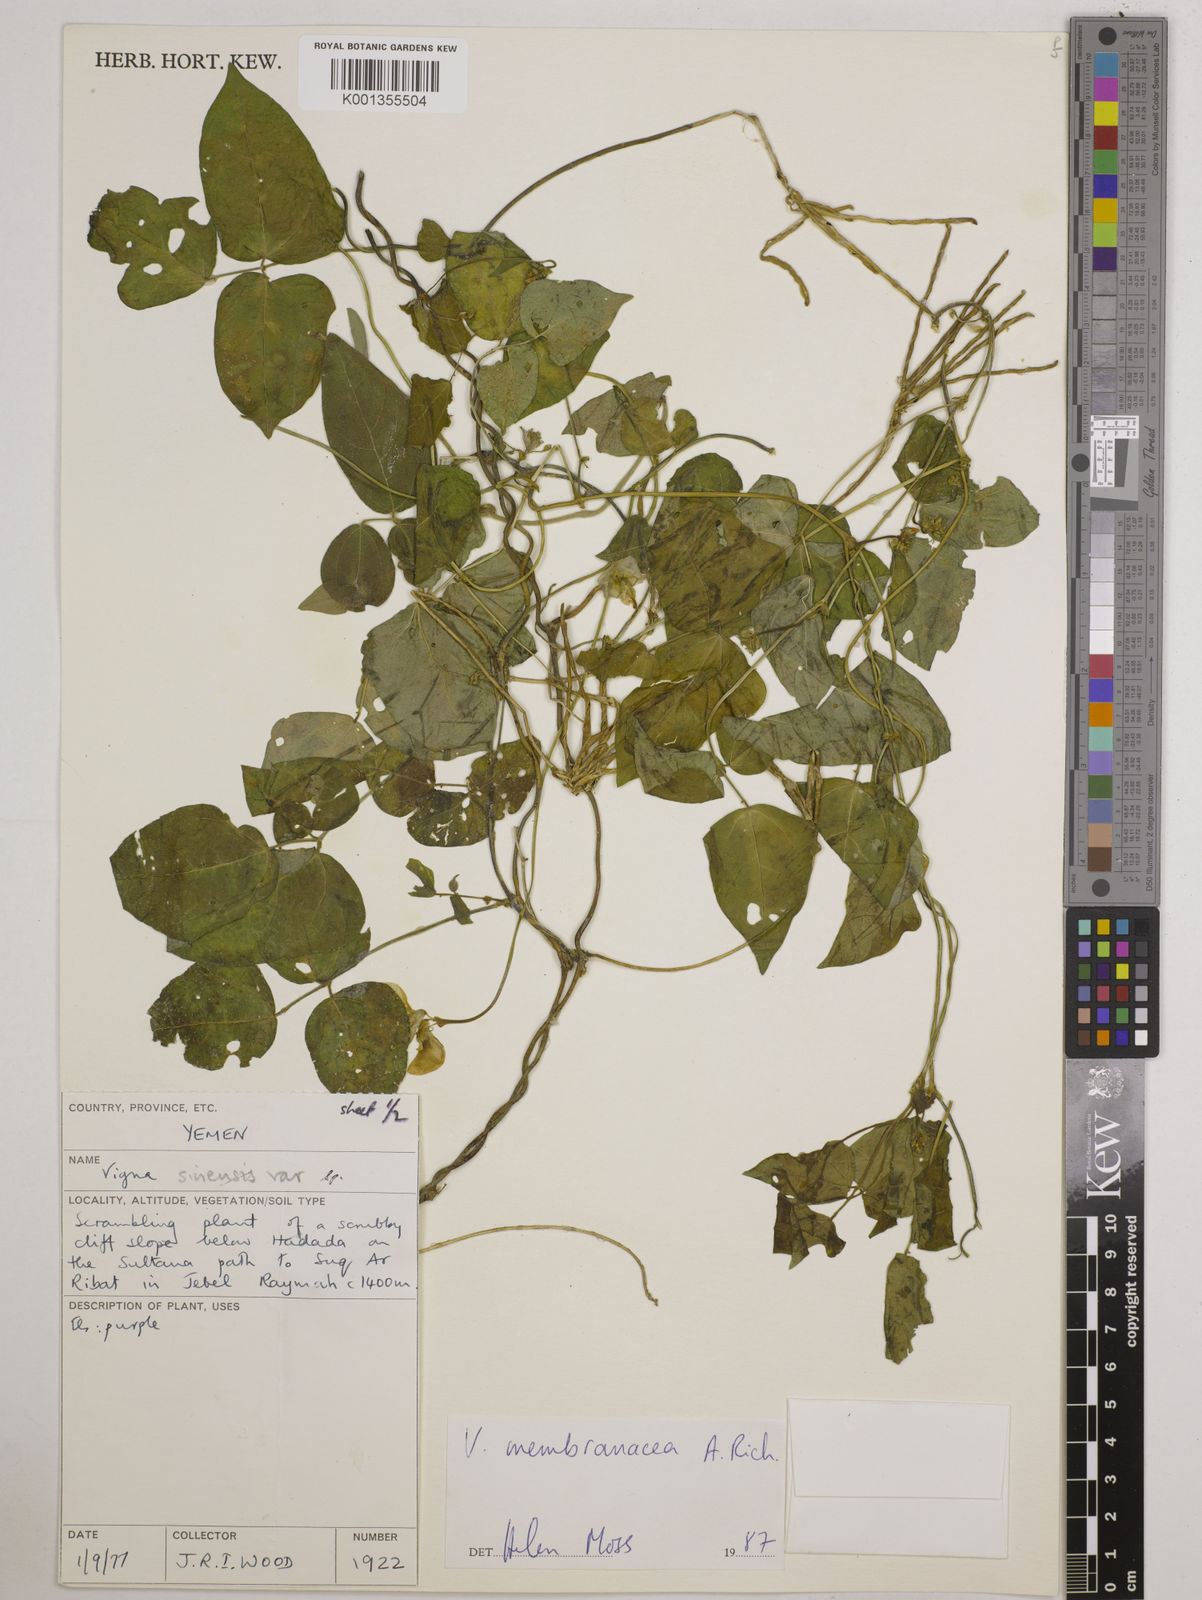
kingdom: Plantae
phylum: Tracheophyta
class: Magnoliopsida
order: Fabales
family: Fabaceae
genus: Vigna
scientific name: Vigna membranacea
